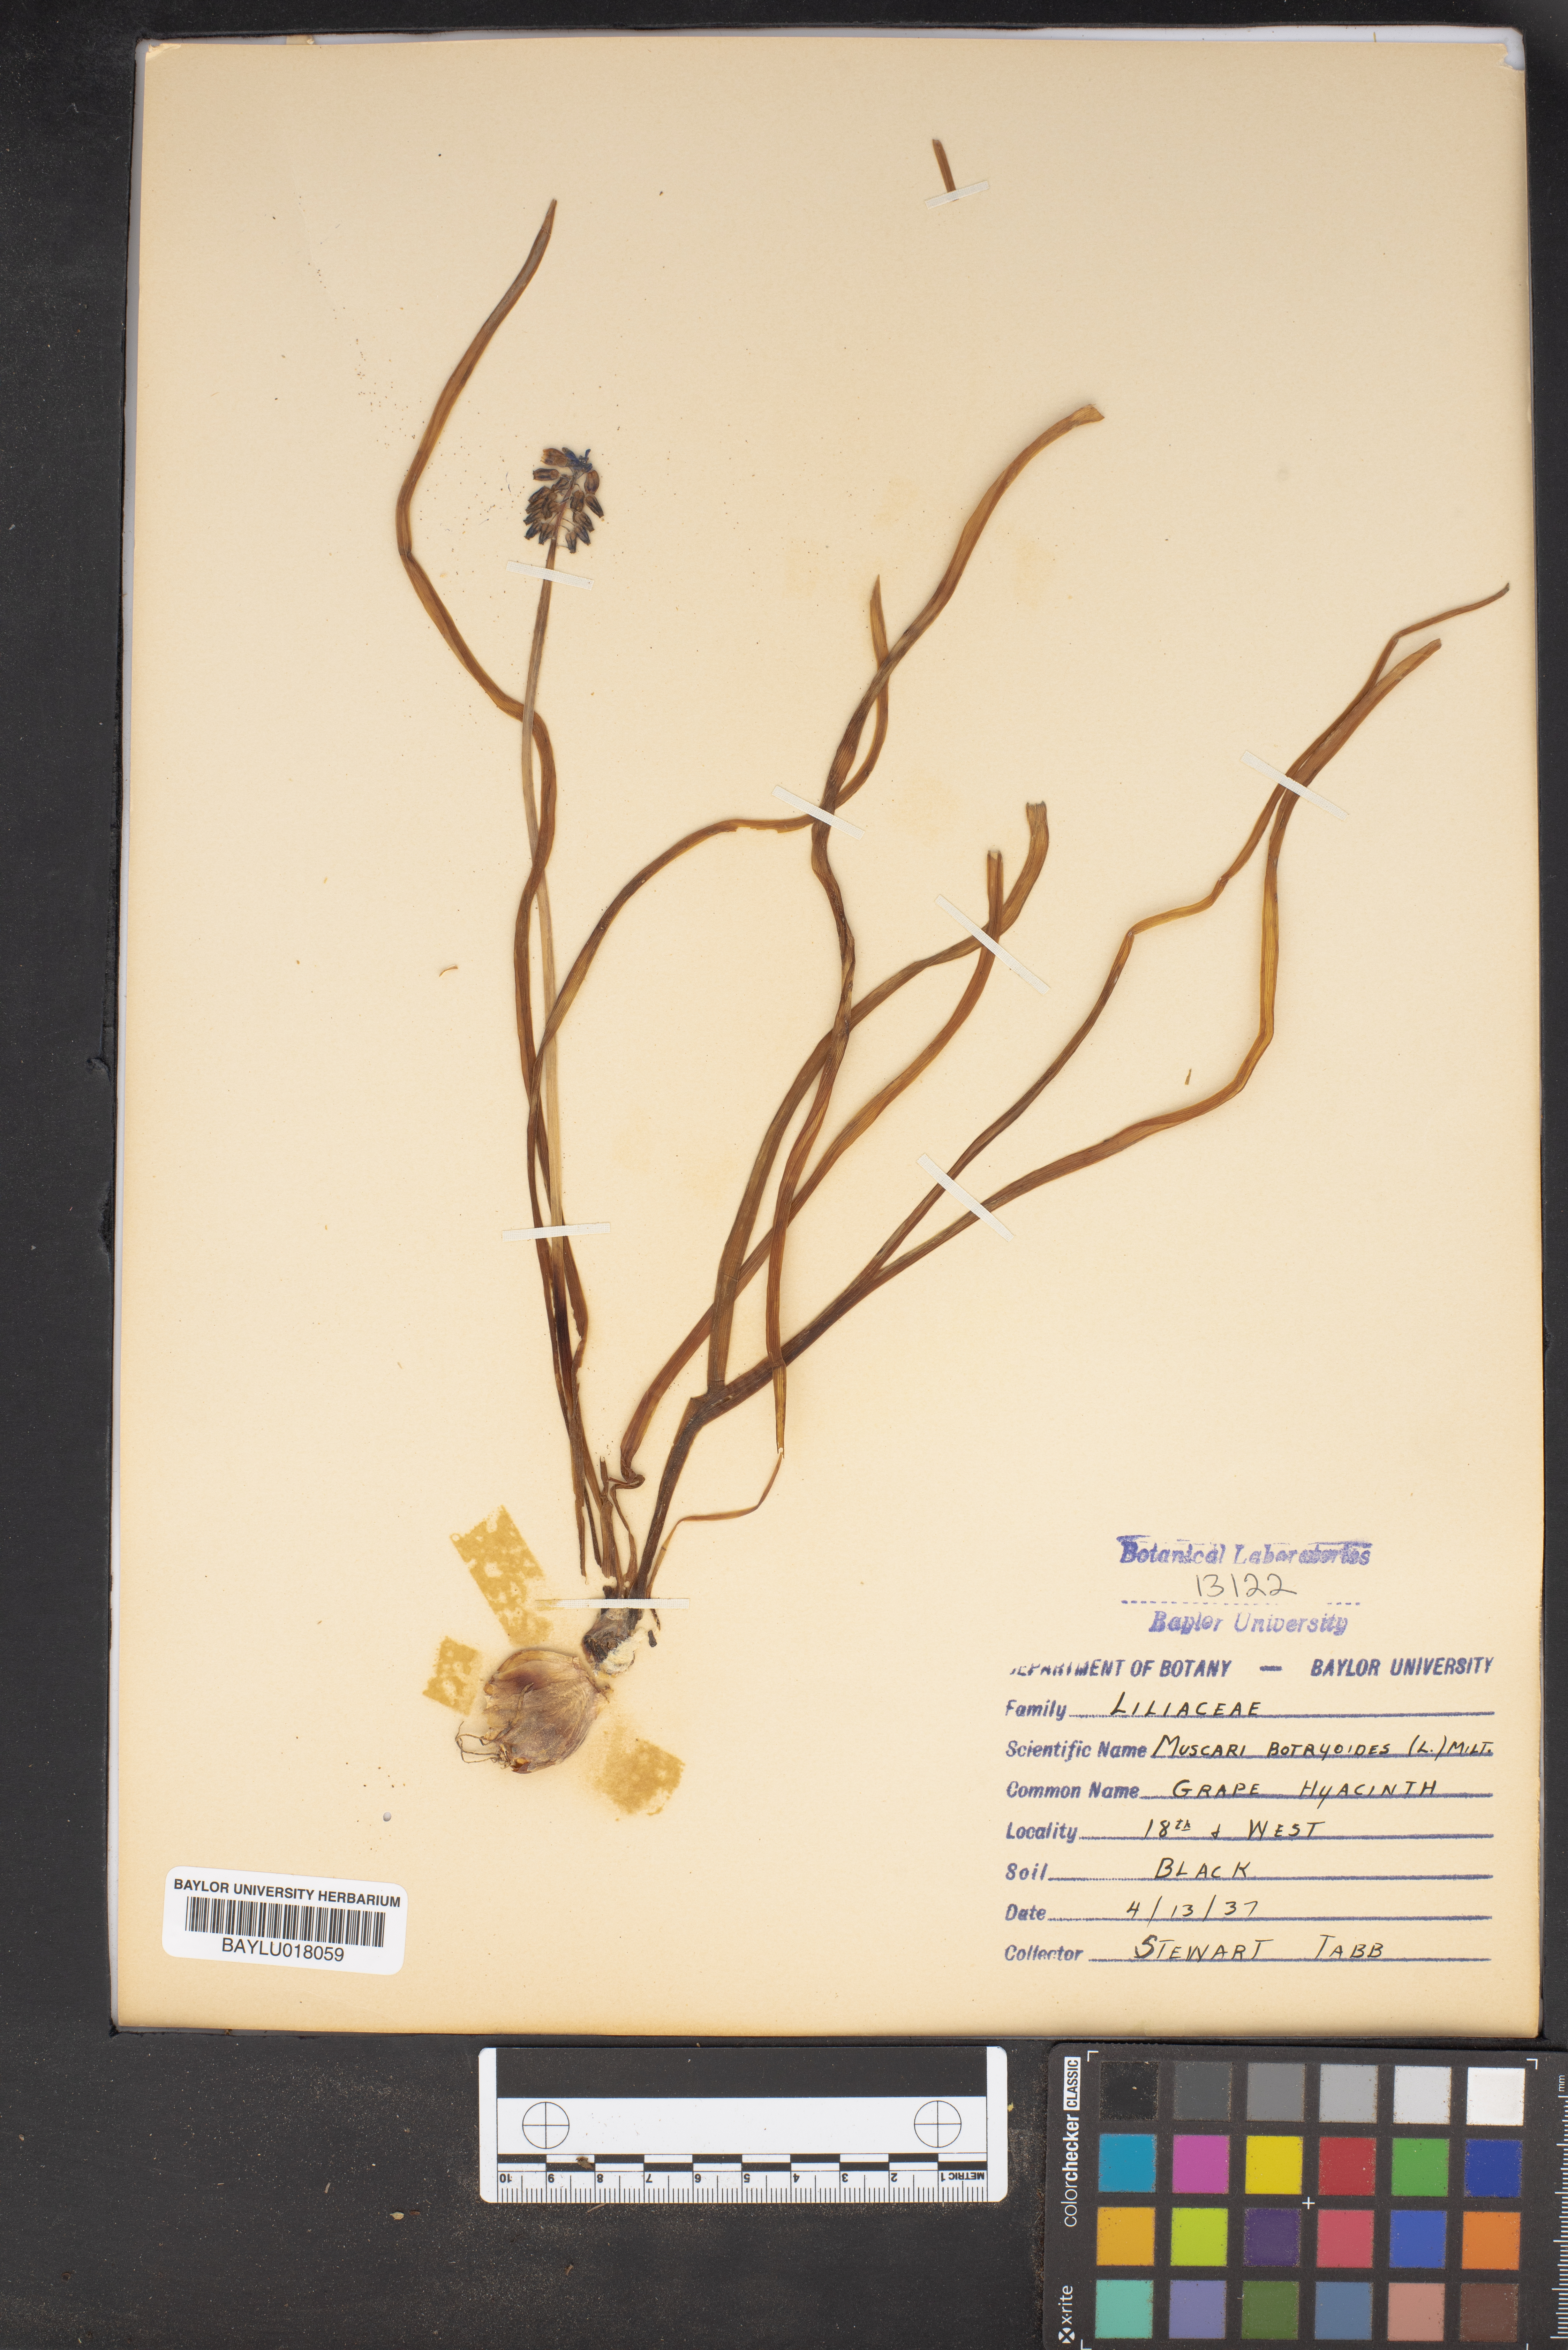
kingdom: Plantae
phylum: Tracheophyta
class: Liliopsida
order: Asparagales
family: Asparagaceae
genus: Muscari
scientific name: Muscari botryoides
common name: Compact grape-hyacinth
